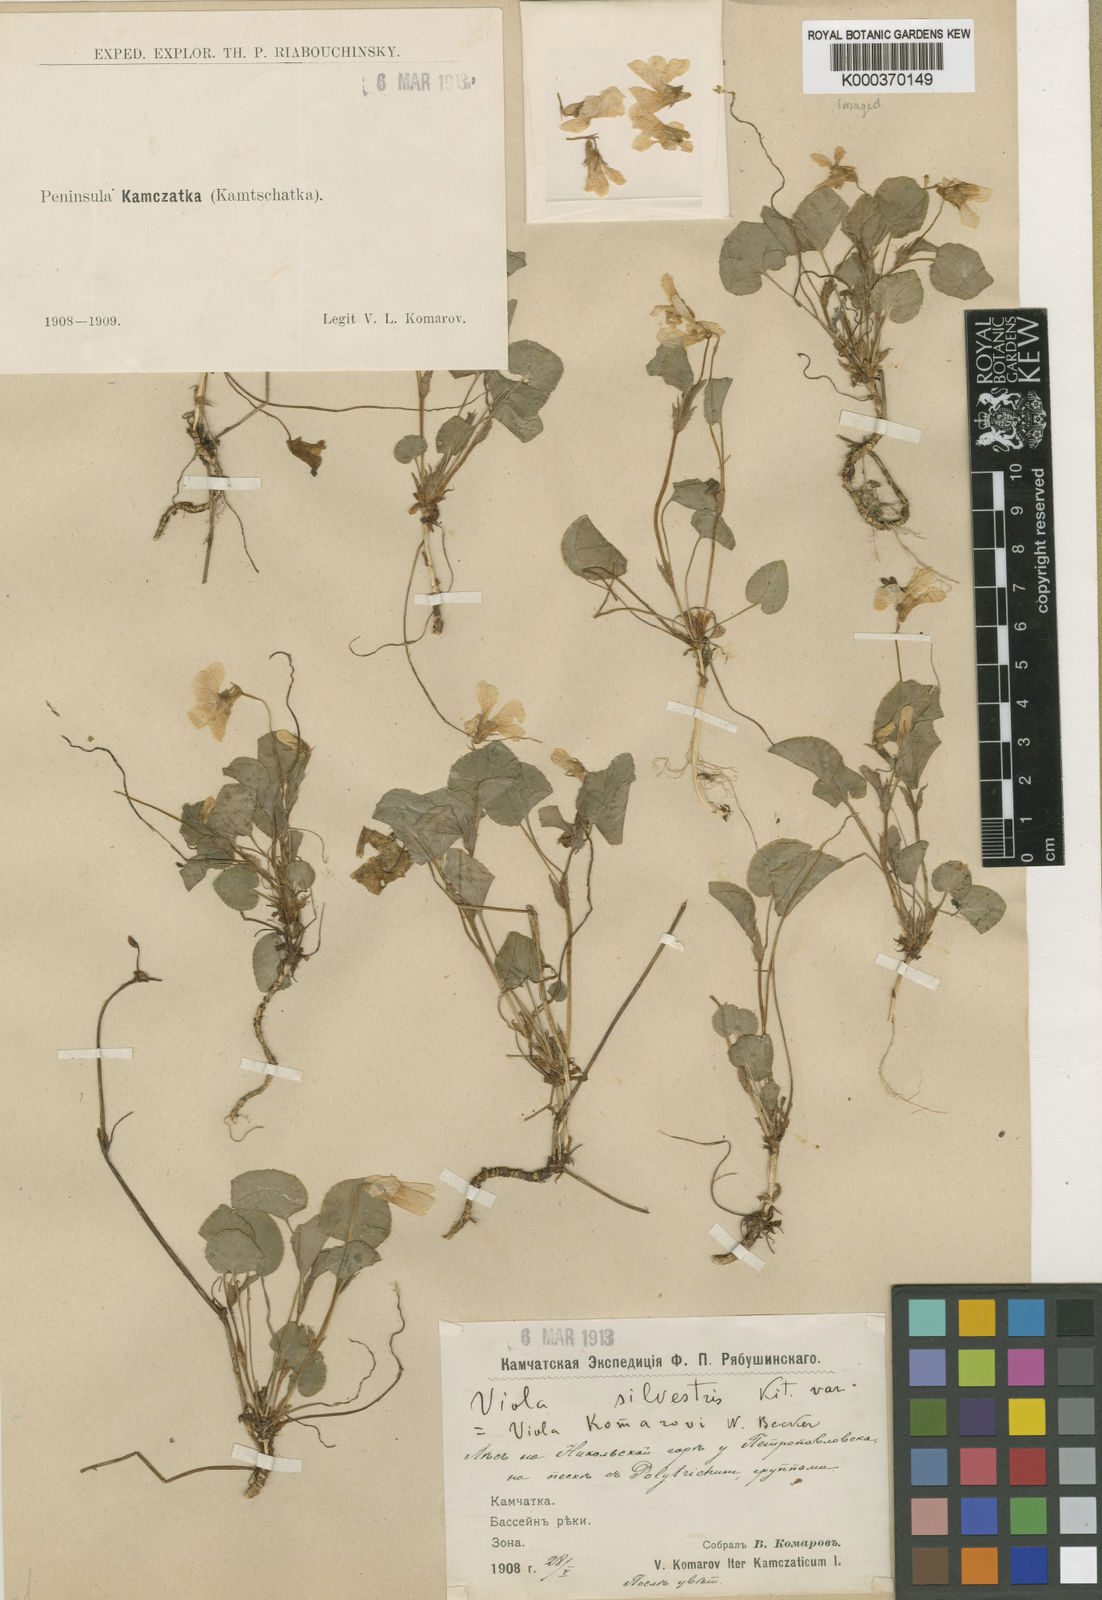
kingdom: Plantae
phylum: Tracheophyta
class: Magnoliopsida
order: Malpighiales
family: Violaceae
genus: Viola
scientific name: Viola sacchalinensis
